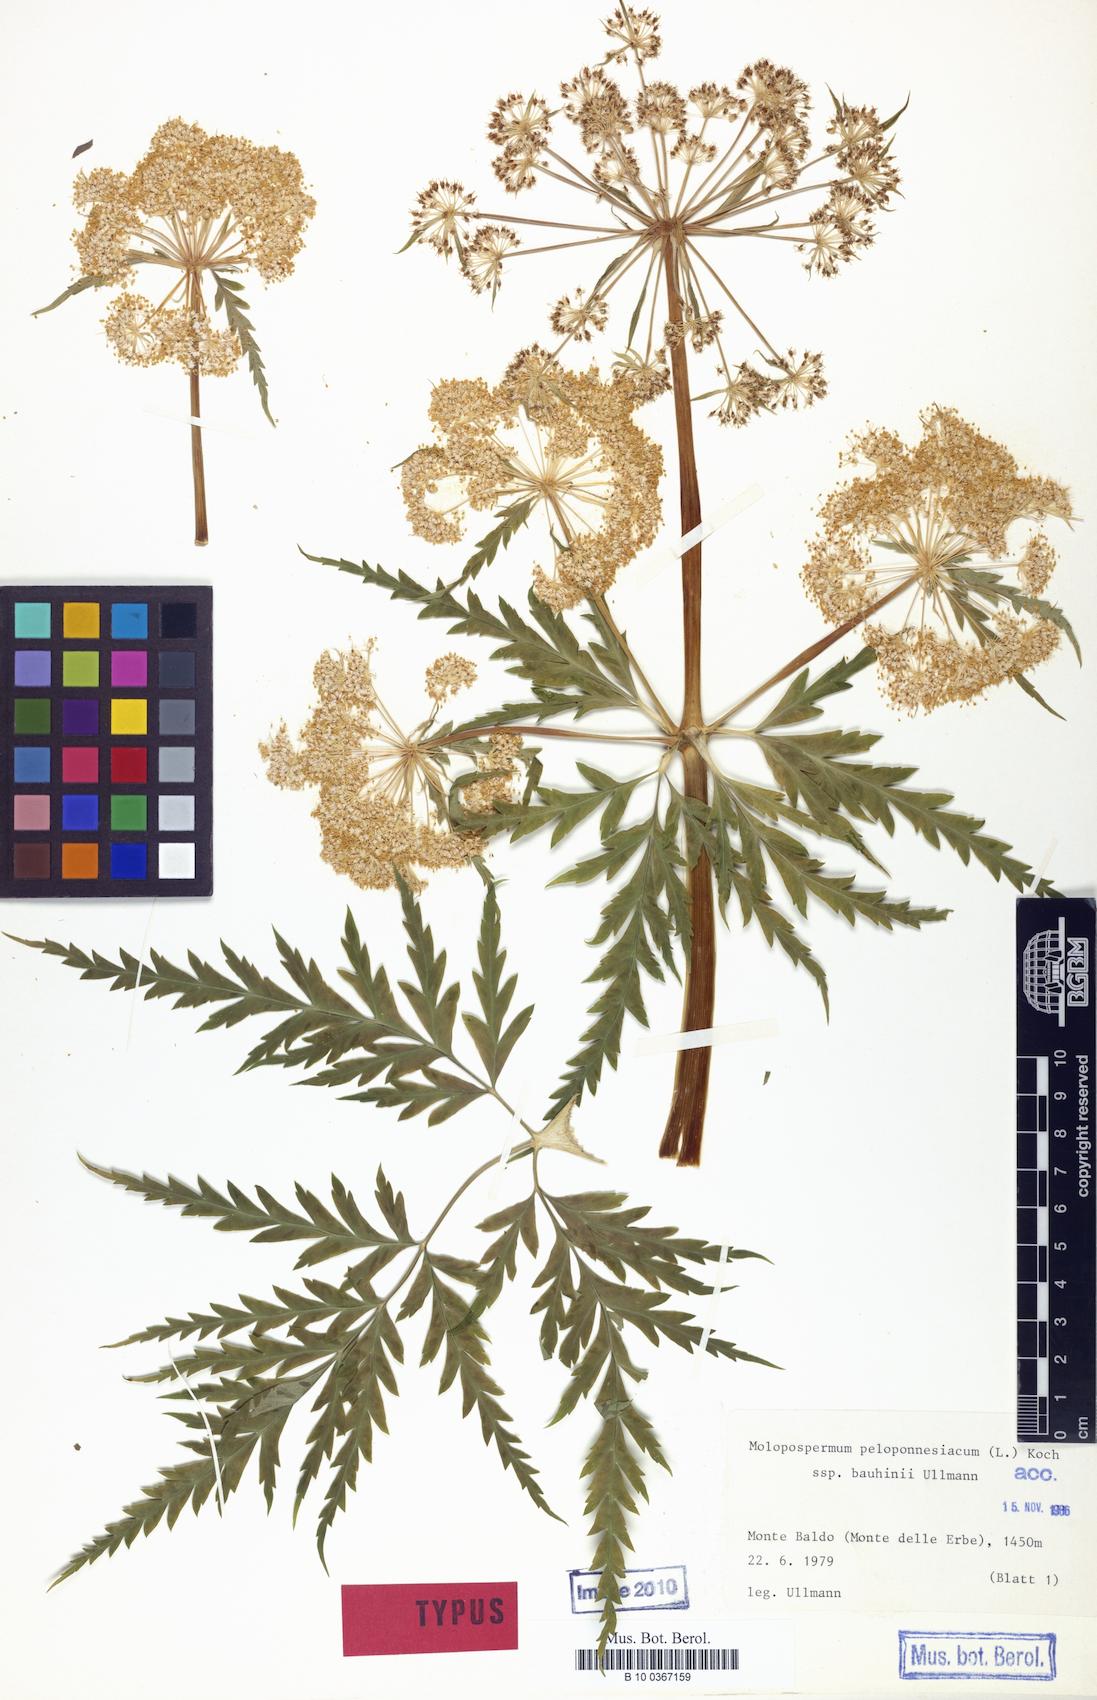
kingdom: Plantae
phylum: Tracheophyta
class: Magnoliopsida
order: Apiales
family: Apiaceae
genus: Molopospermum
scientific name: Molopospermum peloponnesiacum
